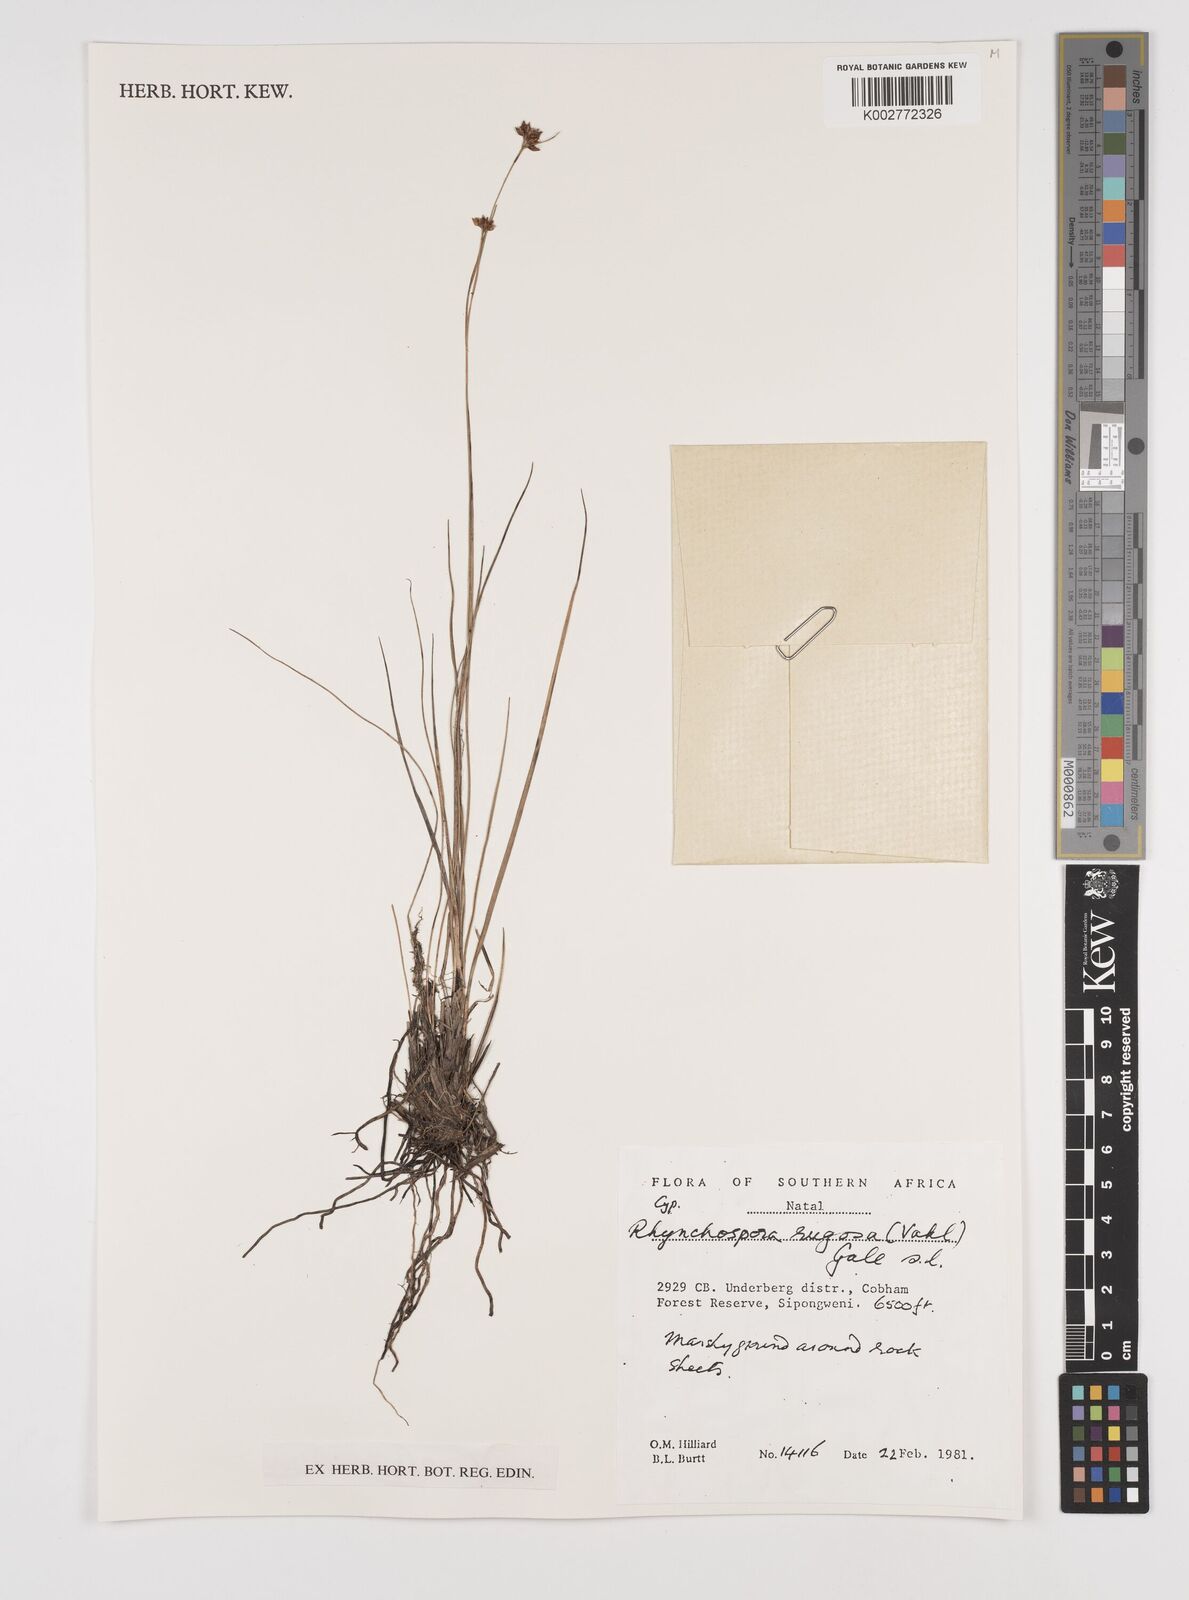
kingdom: Plantae
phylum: Tracheophyta
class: Liliopsida
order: Poales
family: Cyperaceae
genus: Rhynchospora
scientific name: Rhynchospora rugosa
